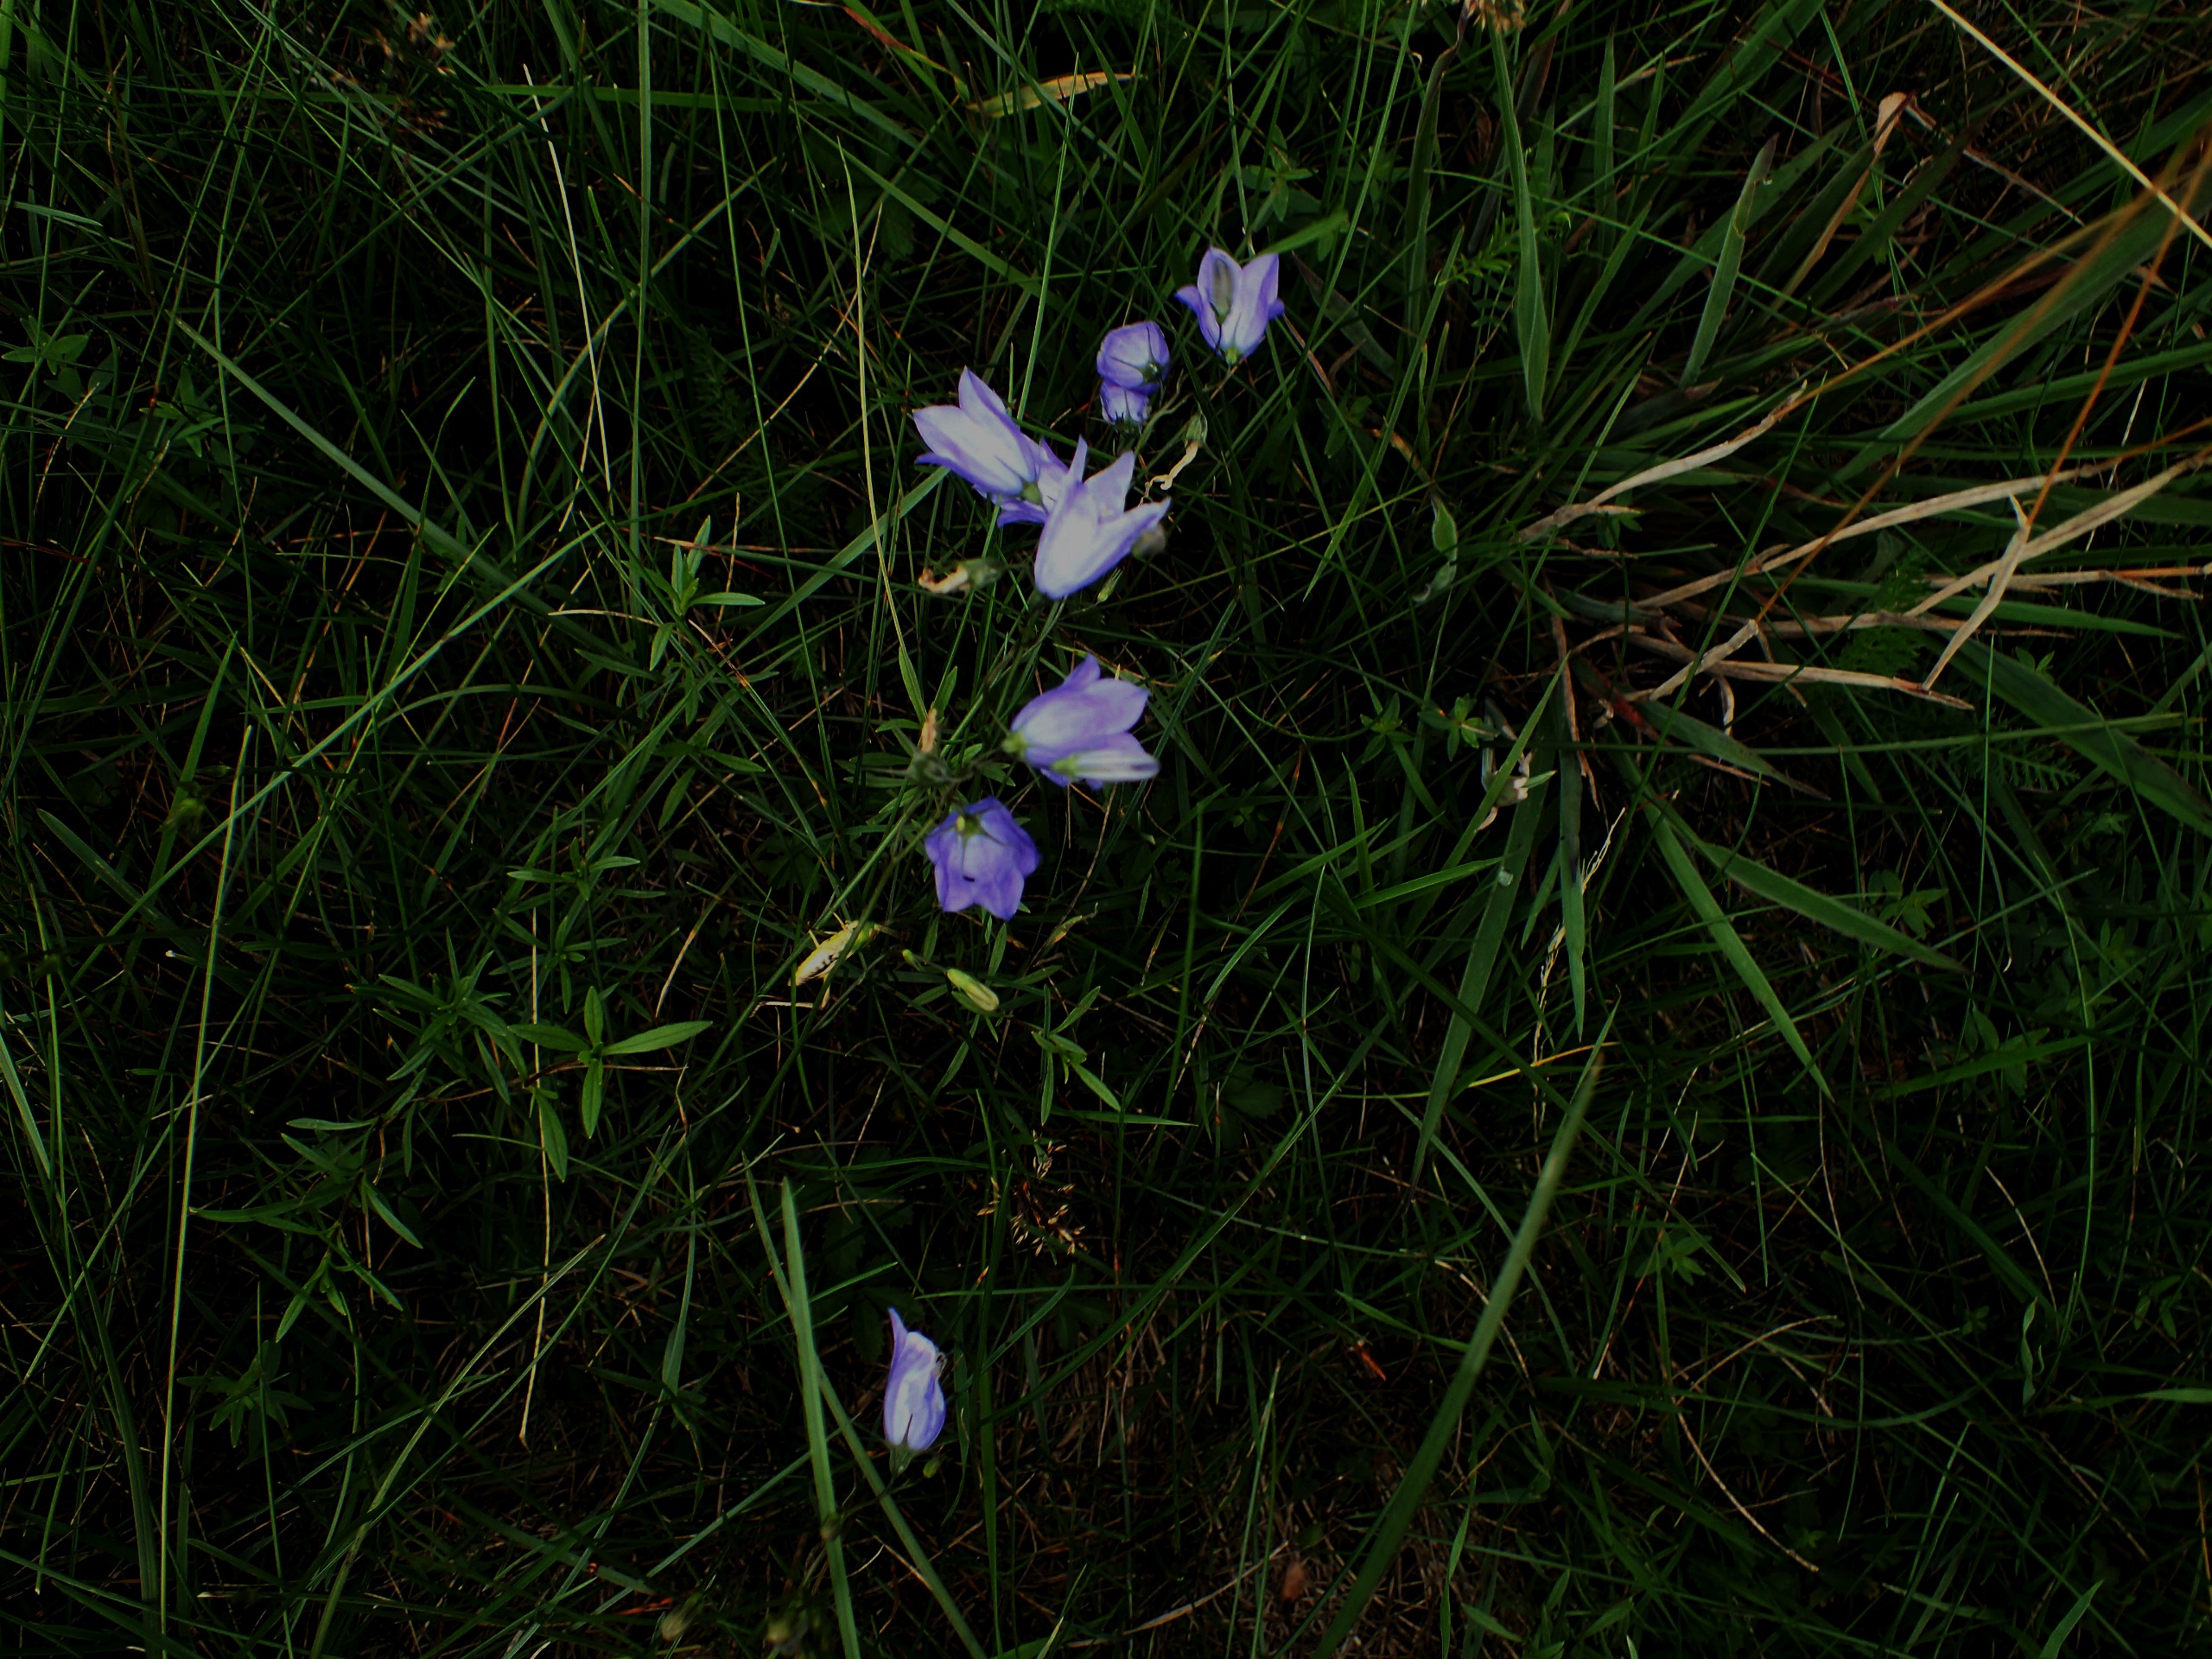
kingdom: Plantae
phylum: Tracheophyta
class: Magnoliopsida
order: Asterales
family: Campanulaceae
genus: Campanula
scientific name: Campanula rotundifolia
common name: Liden klokke
